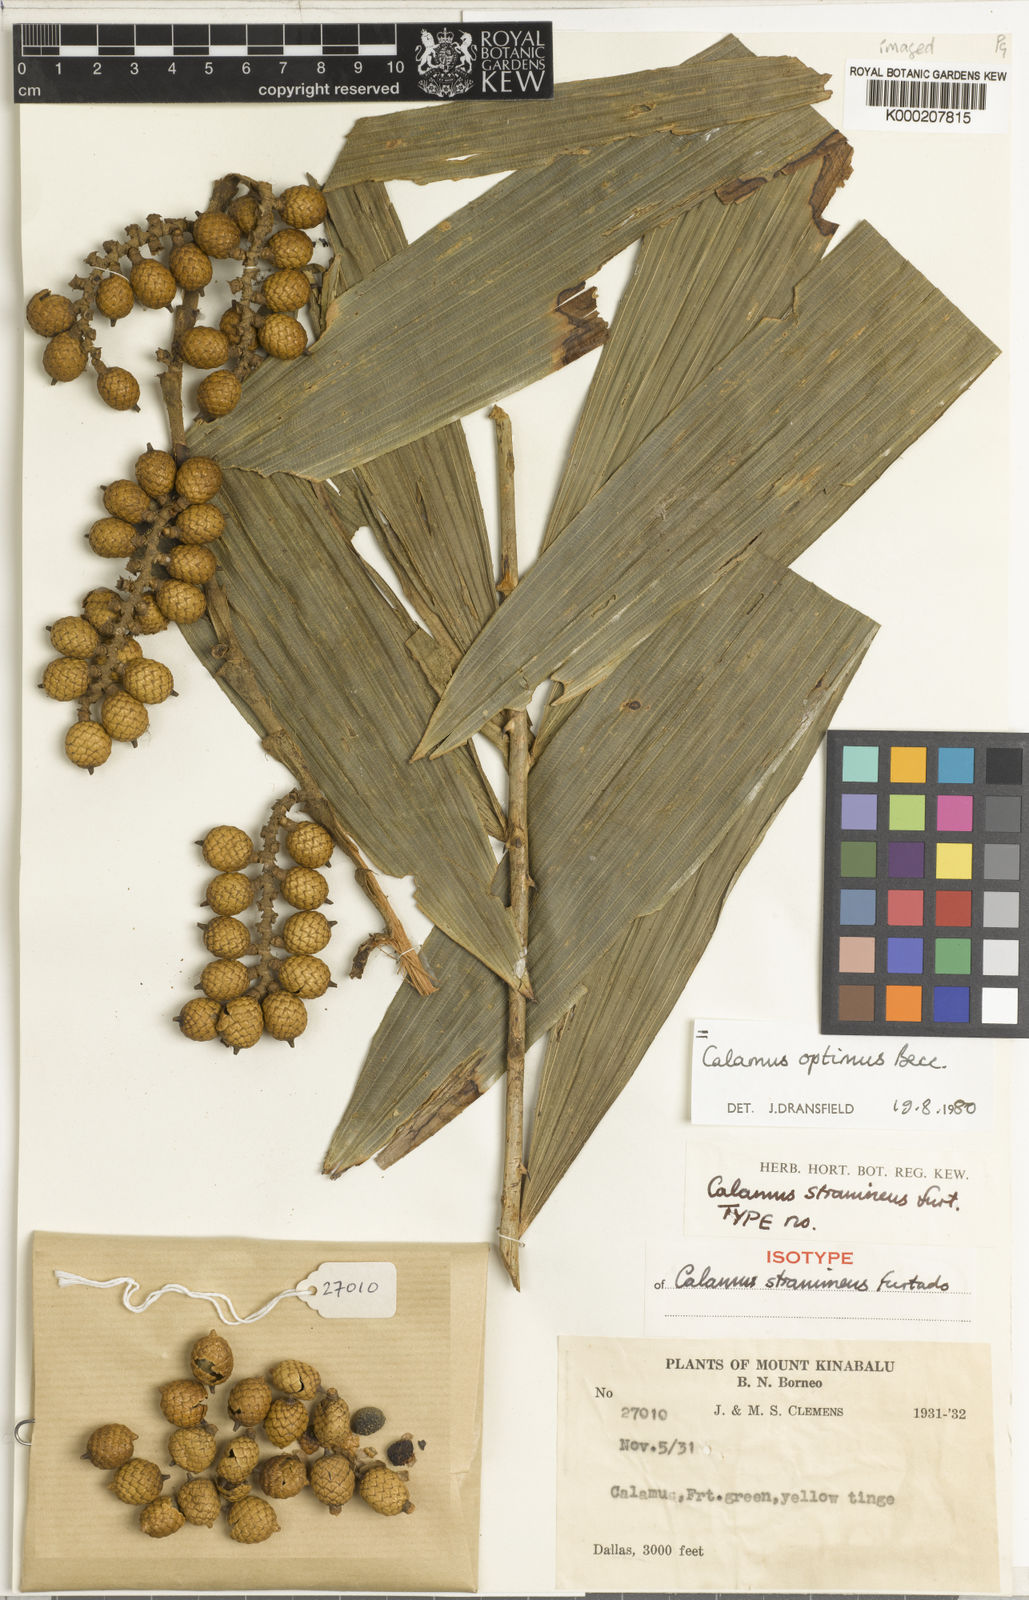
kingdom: Plantae
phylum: Tracheophyta
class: Liliopsida
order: Arecales
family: Arecaceae
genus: Calamus
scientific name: Calamus optimus
